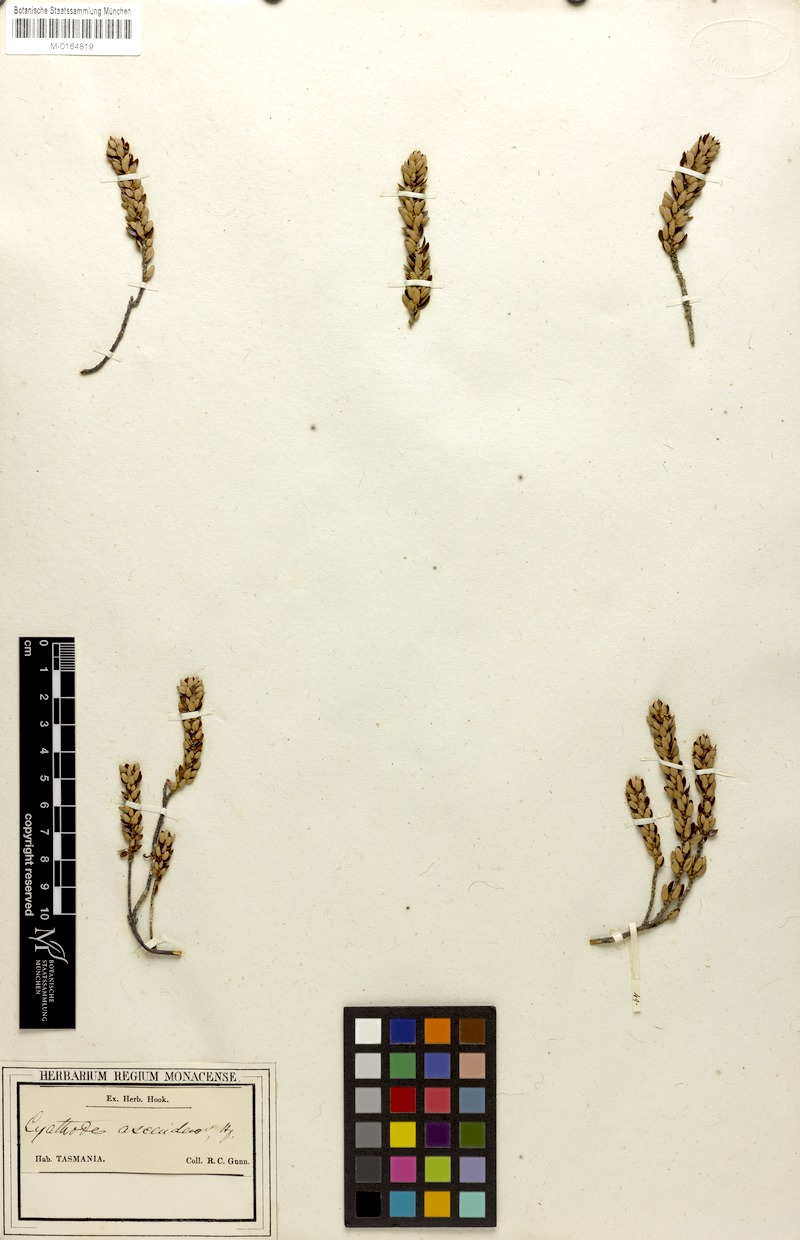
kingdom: Plantae
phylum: Tracheophyta
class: Magnoliopsida
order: Ericales
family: Ericaceae
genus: Planocarpa
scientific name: Planocarpa petiolaris
